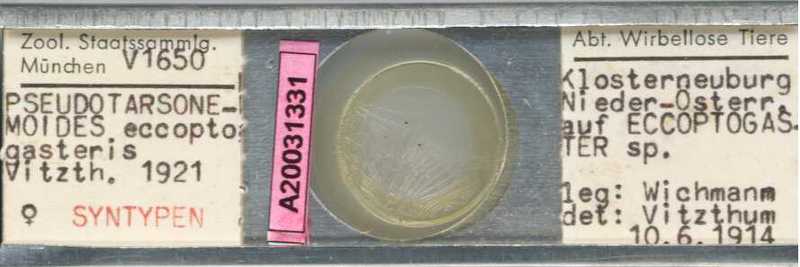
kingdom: Animalia
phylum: Arthropoda
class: Arachnida
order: Trombidiformes
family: Tarsonemidae
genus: Pseudotarsonemoides
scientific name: Pseudotarsonemoides eccoptogasteris
